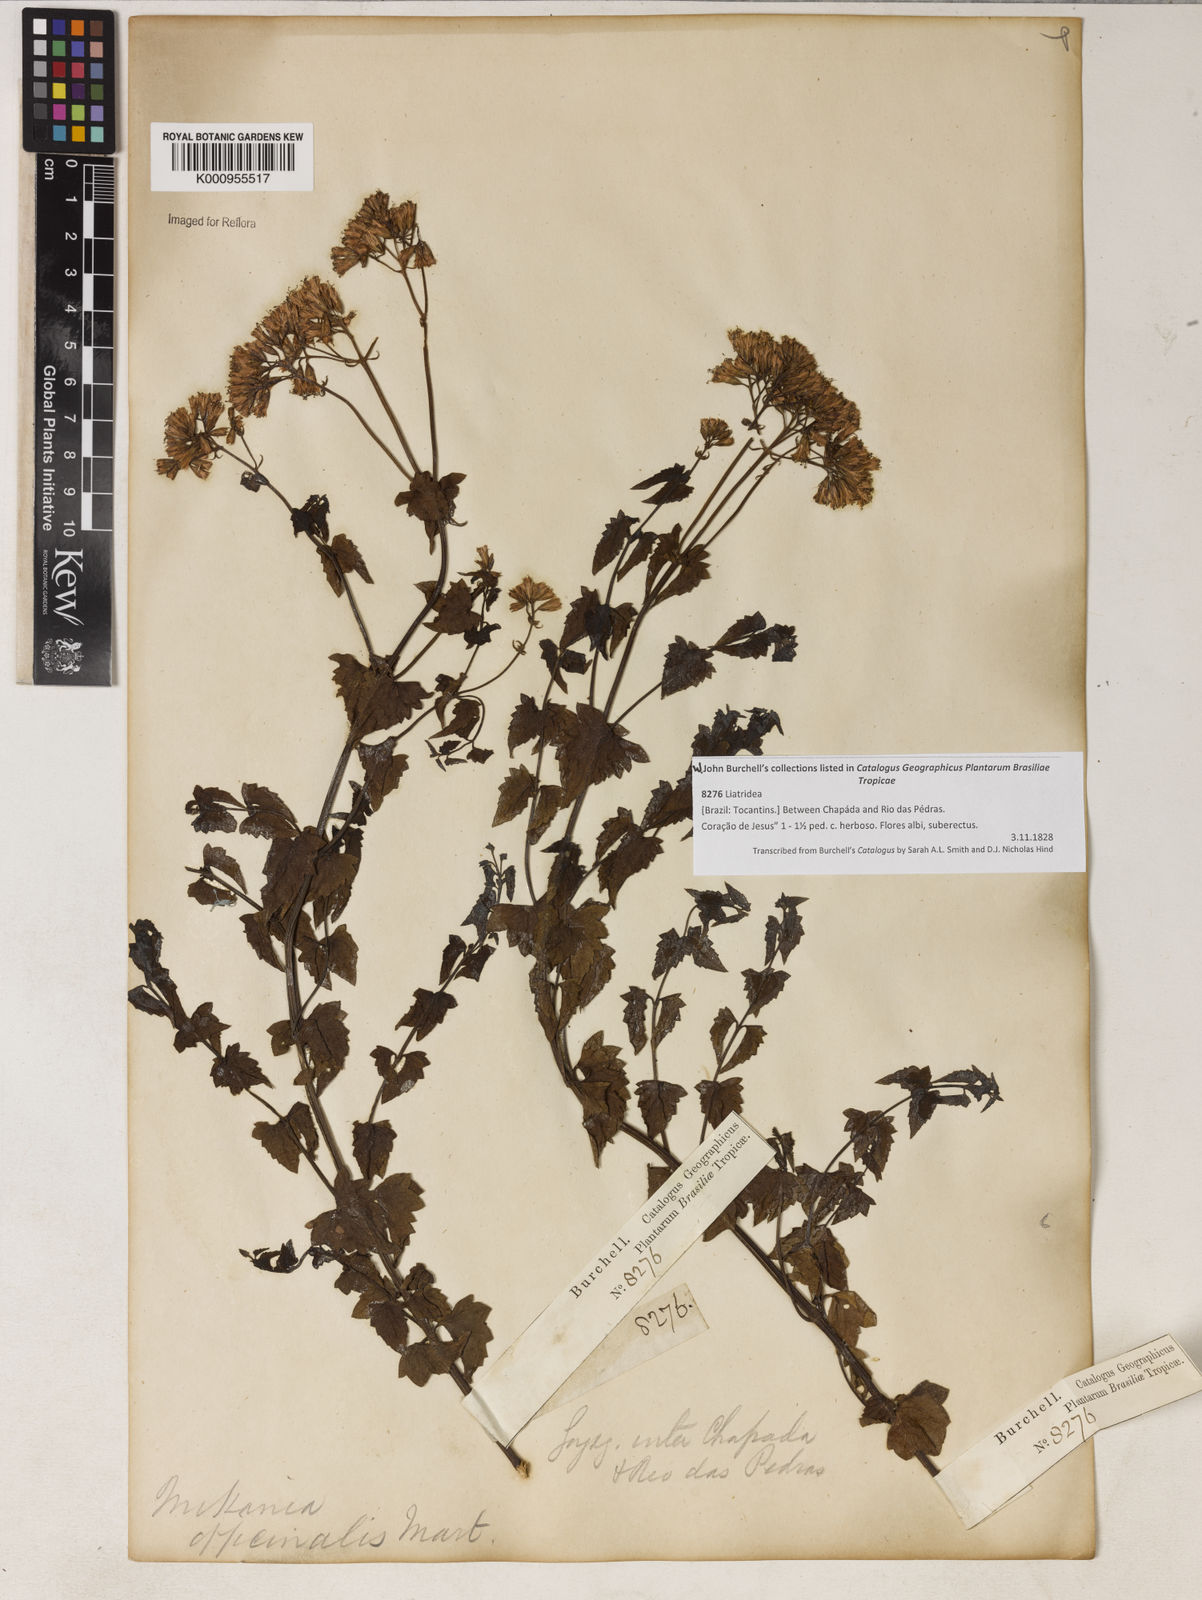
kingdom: Plantae
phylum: Tracheophyta
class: Magnoliopsida
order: Asterales
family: Asteraceae
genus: Mikania
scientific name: Mikania officinalis
